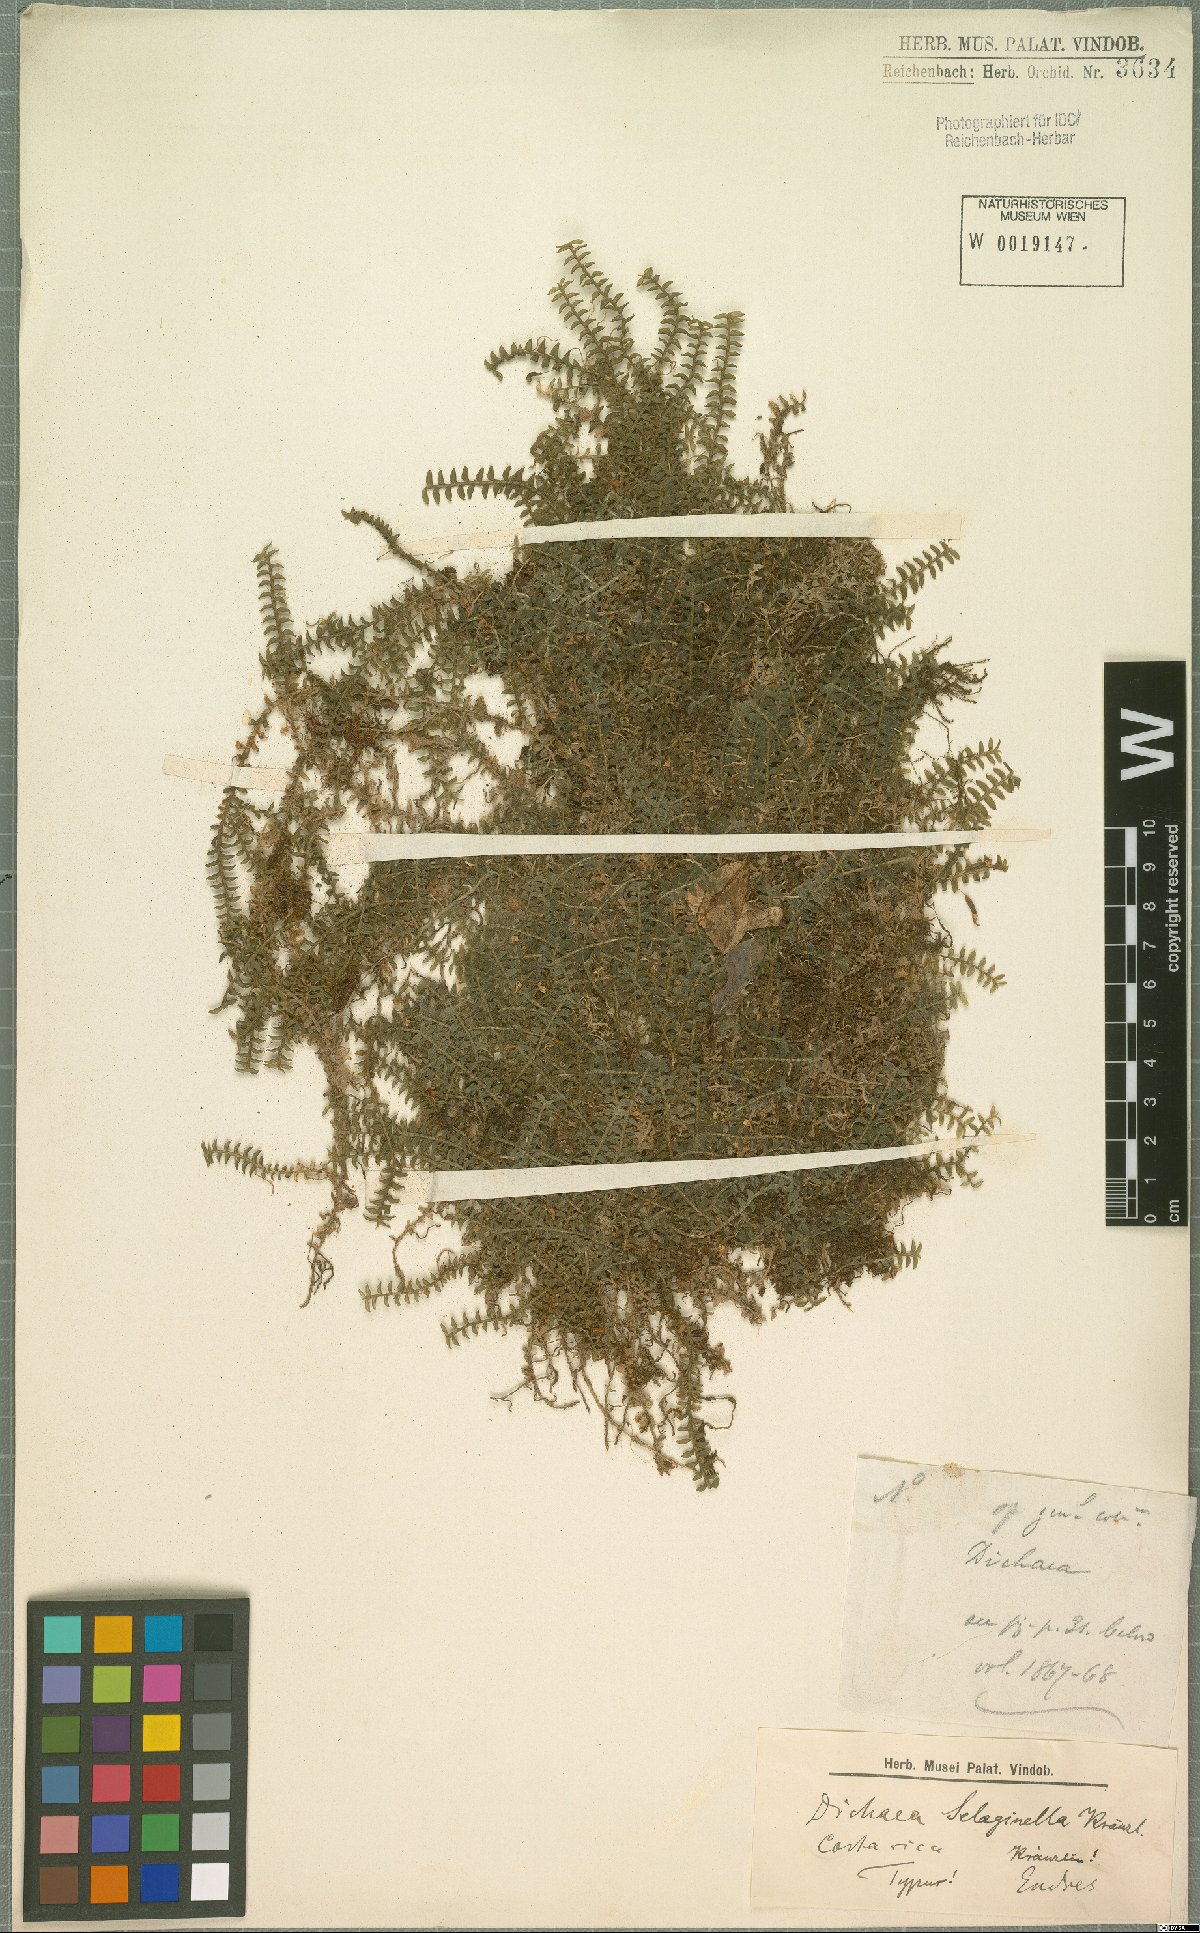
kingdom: Plantae
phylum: Tracheophyta
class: Liliopsida
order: Asparagales
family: Orchidaceae
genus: Dichaea
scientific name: Dichaea selaginella
